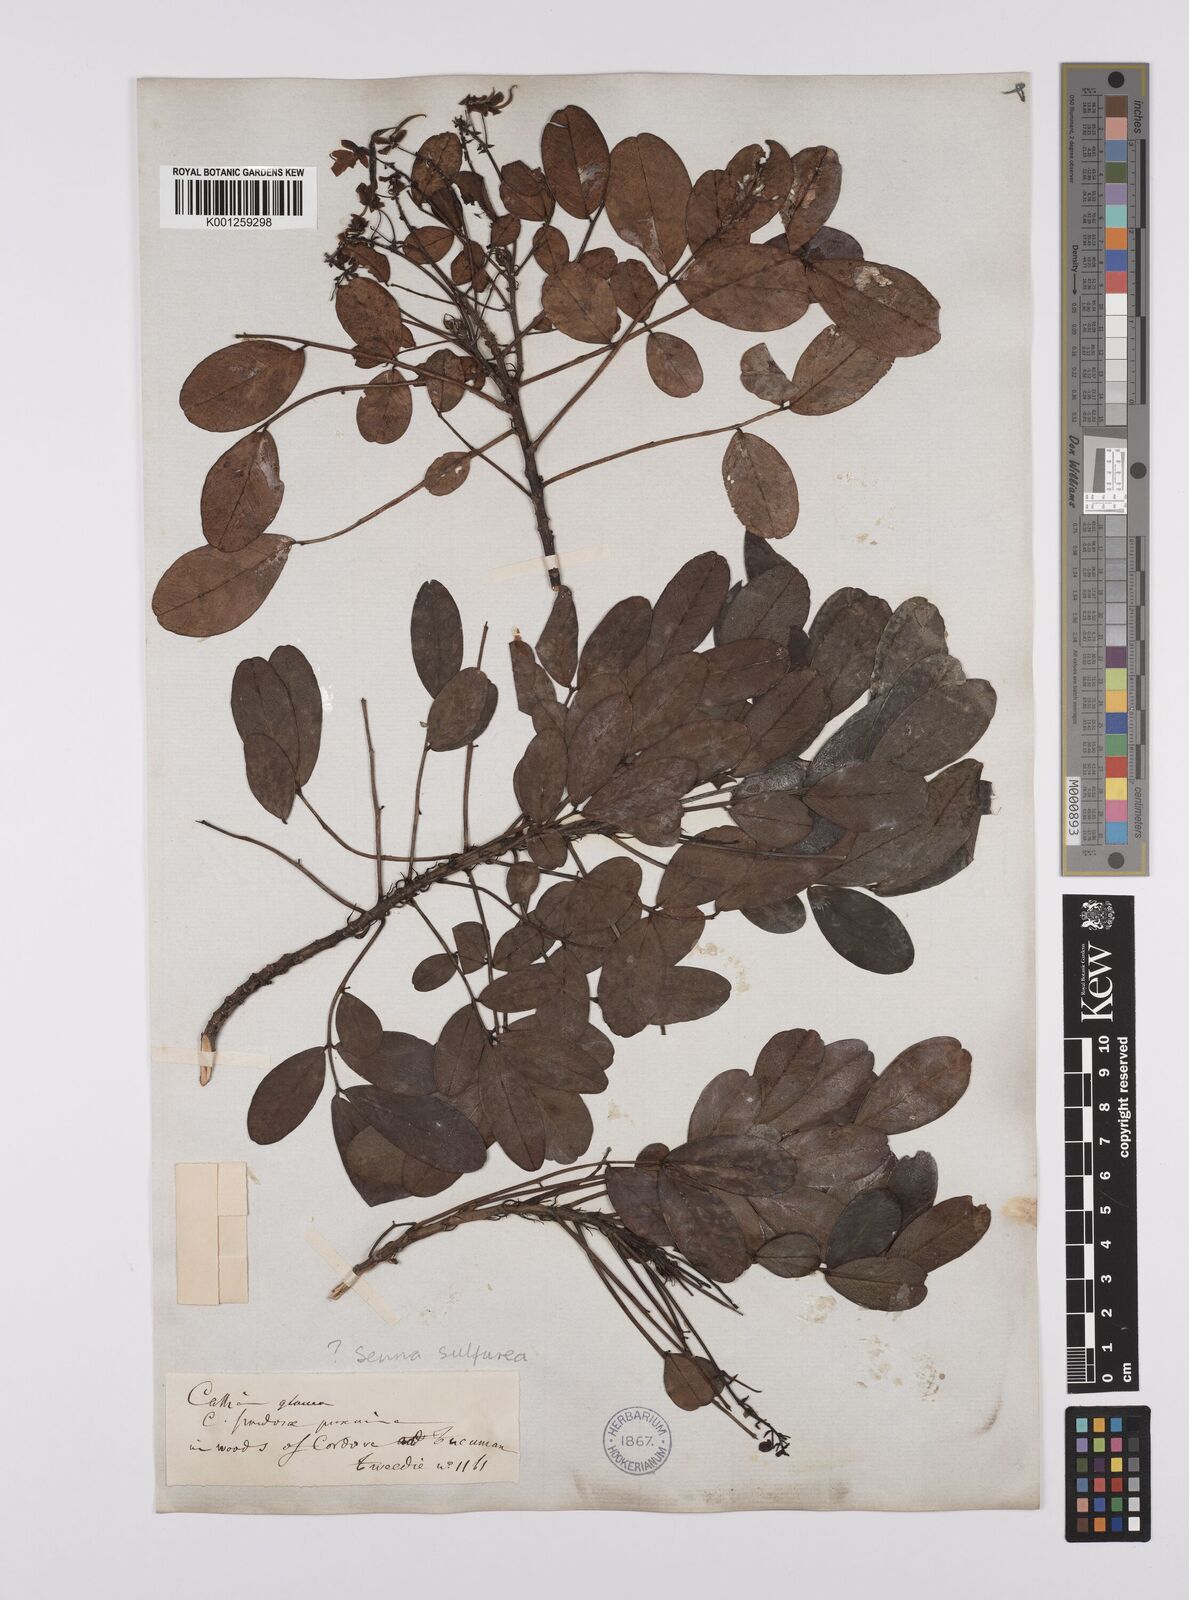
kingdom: Plantae
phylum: Tracheophyta
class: Magnoliopsida
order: Fabales
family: Fabaceae
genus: Senna
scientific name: Senna sulfurea
